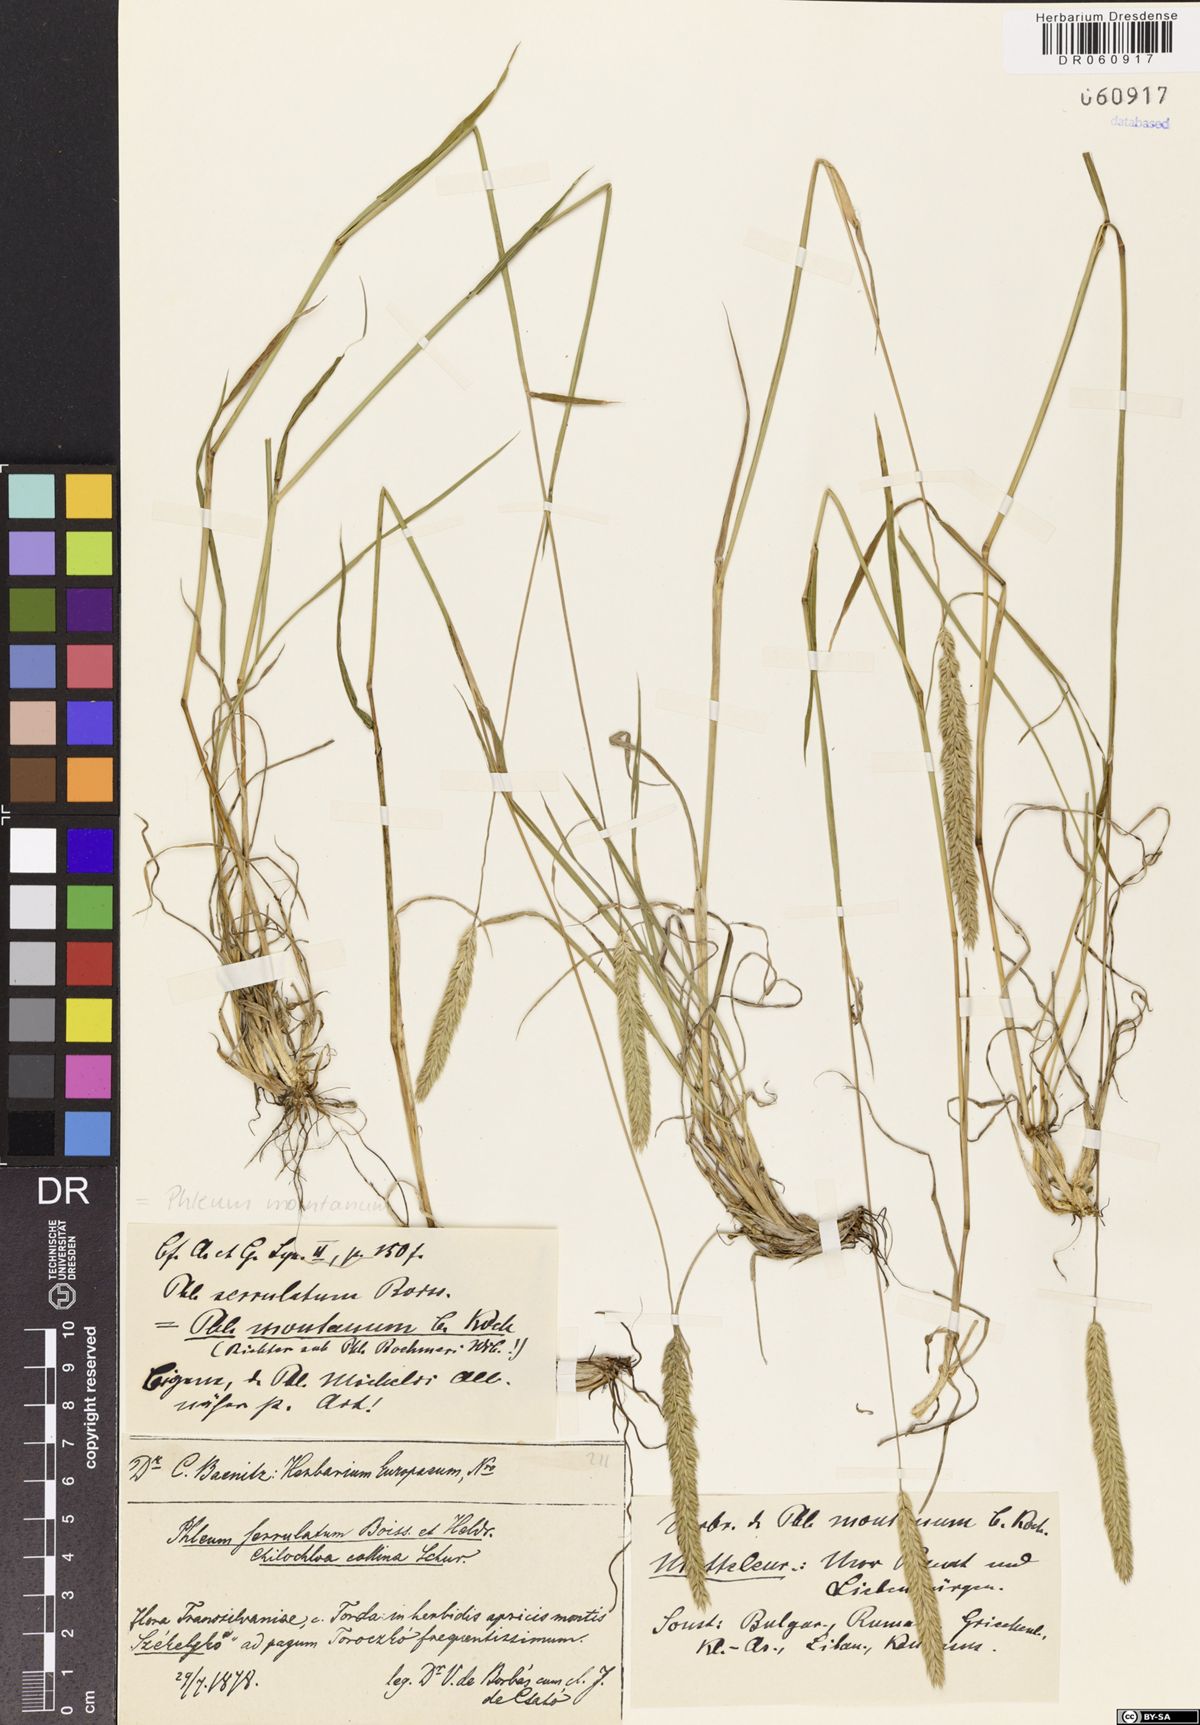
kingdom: Plantae
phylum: Tracheophyta
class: Liliopsida
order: Poales
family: Poaceae
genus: Phleum
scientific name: Phleum montanum
